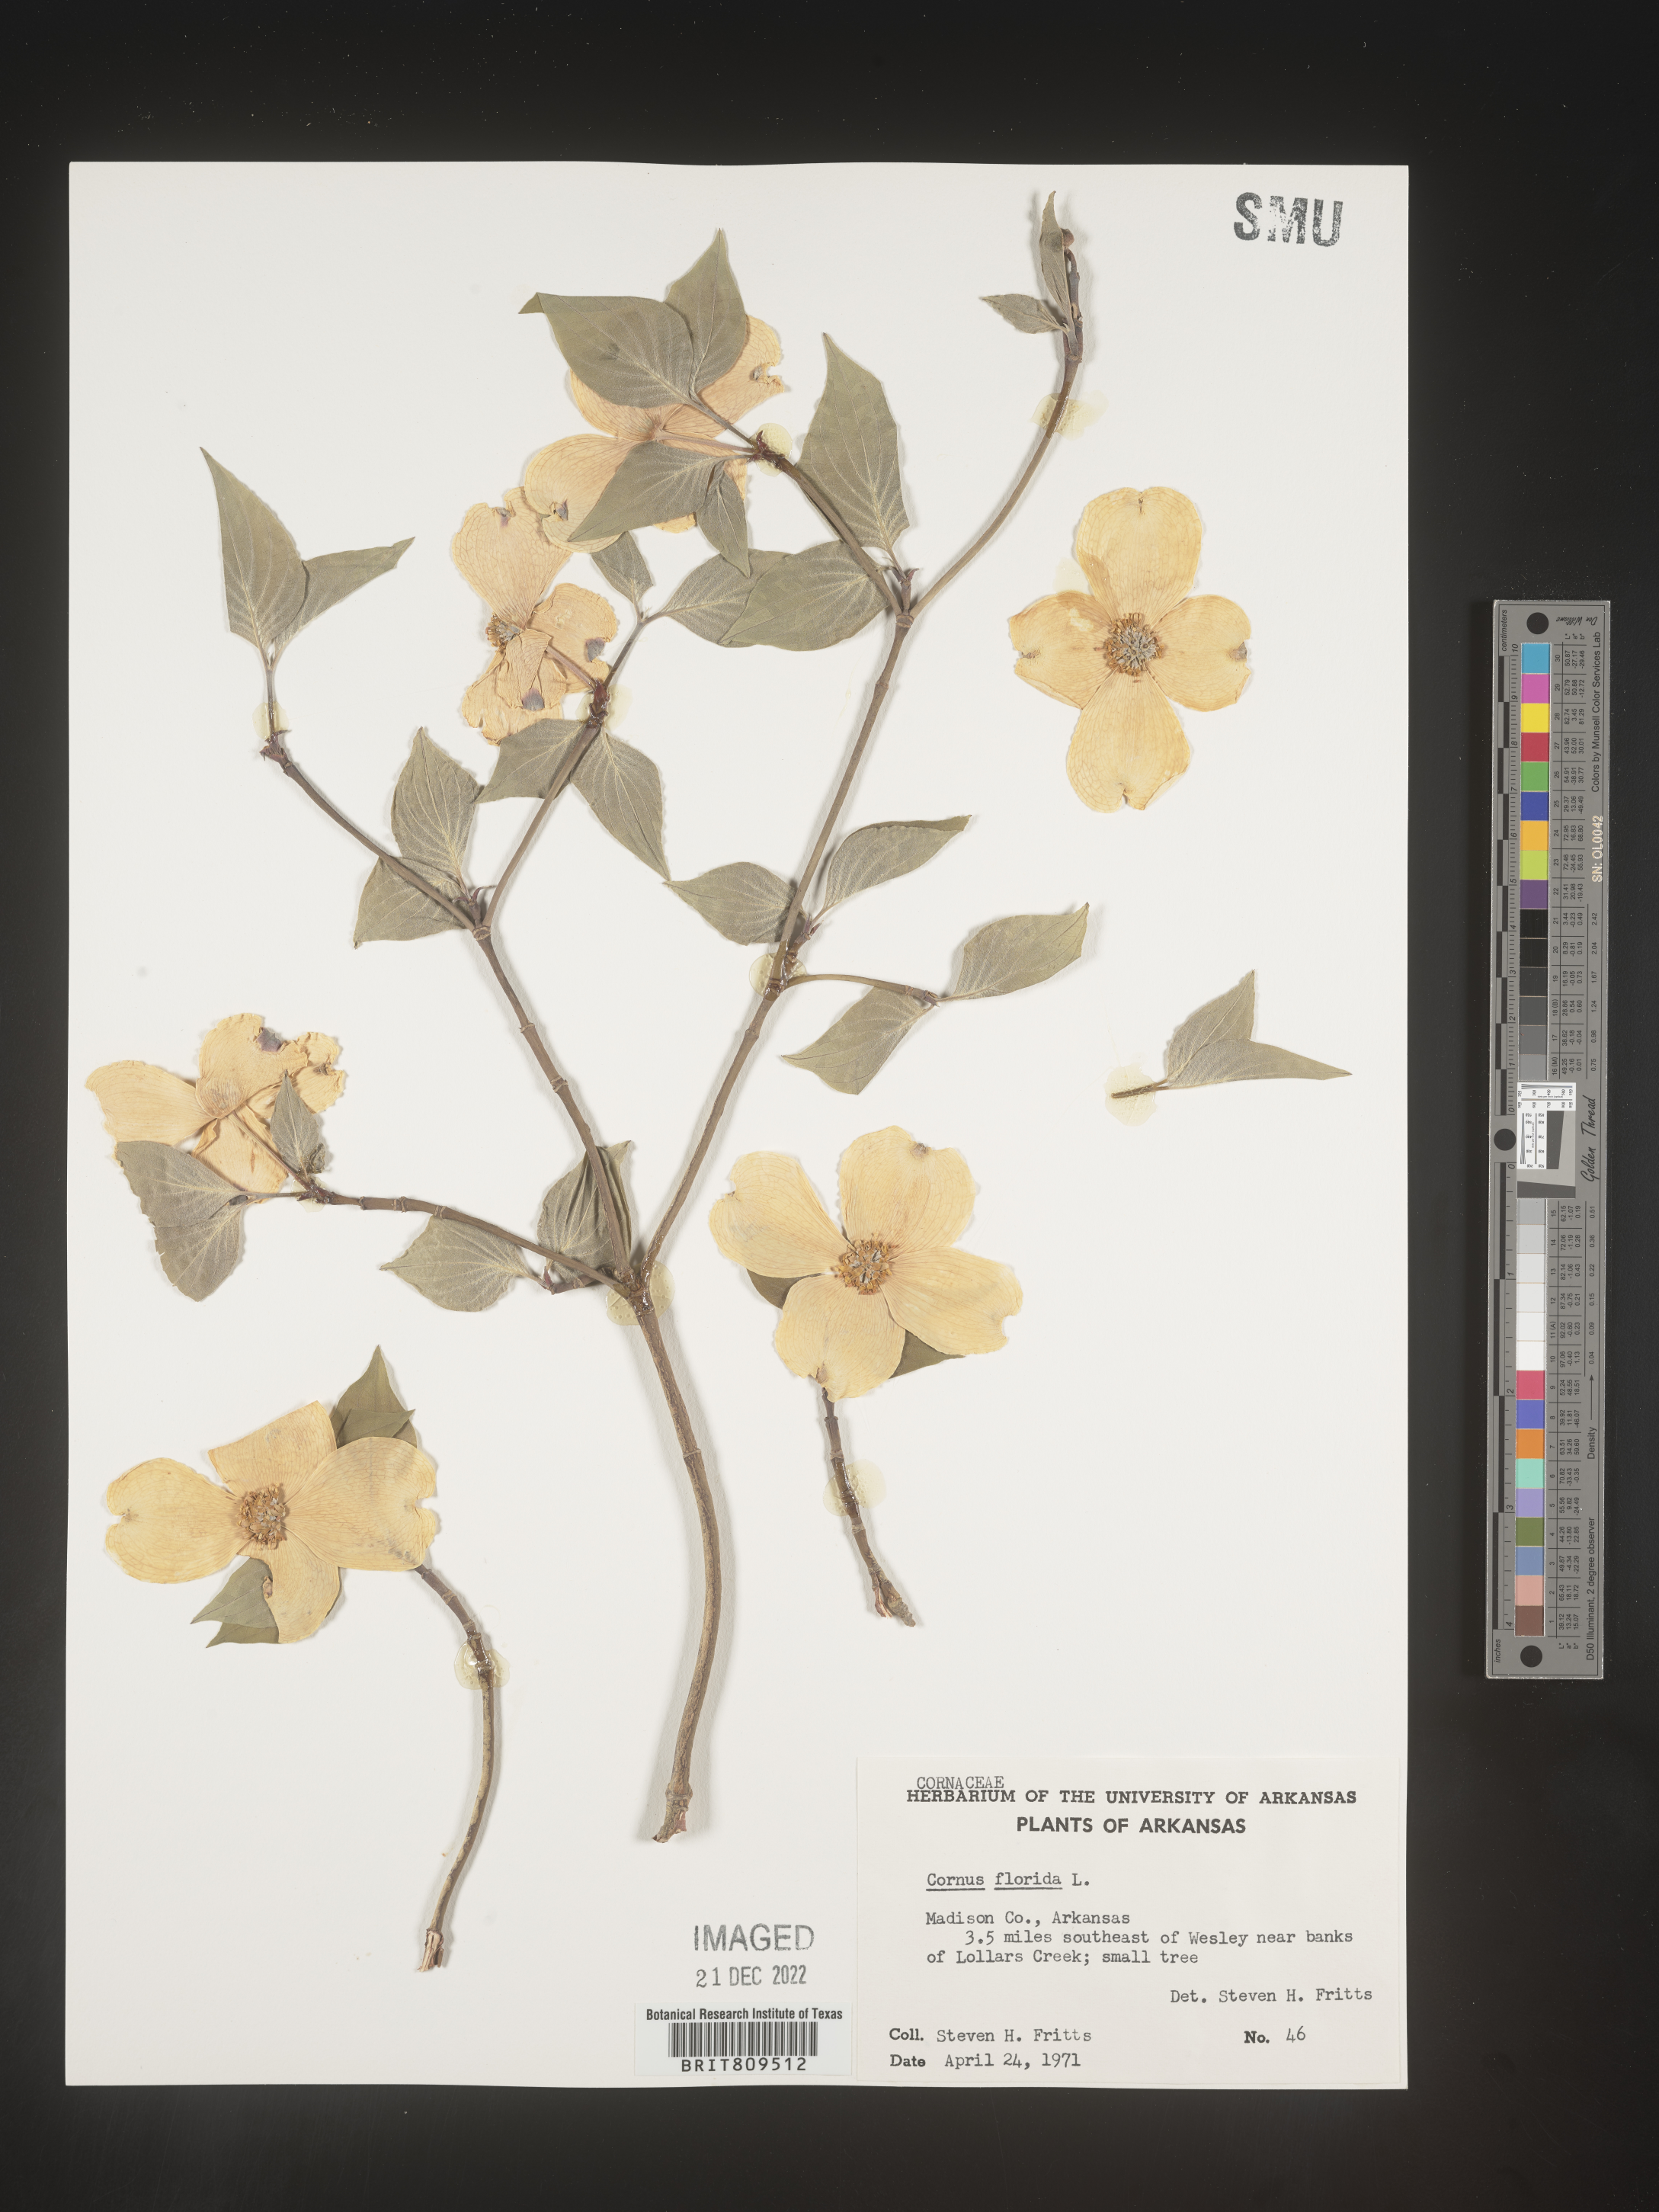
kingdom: Plantae
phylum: Tracheophyta
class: Magnoliopsida
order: Cornales
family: Cornaceae
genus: Cornus
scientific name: Cornus florida
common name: Flowering dogwood
